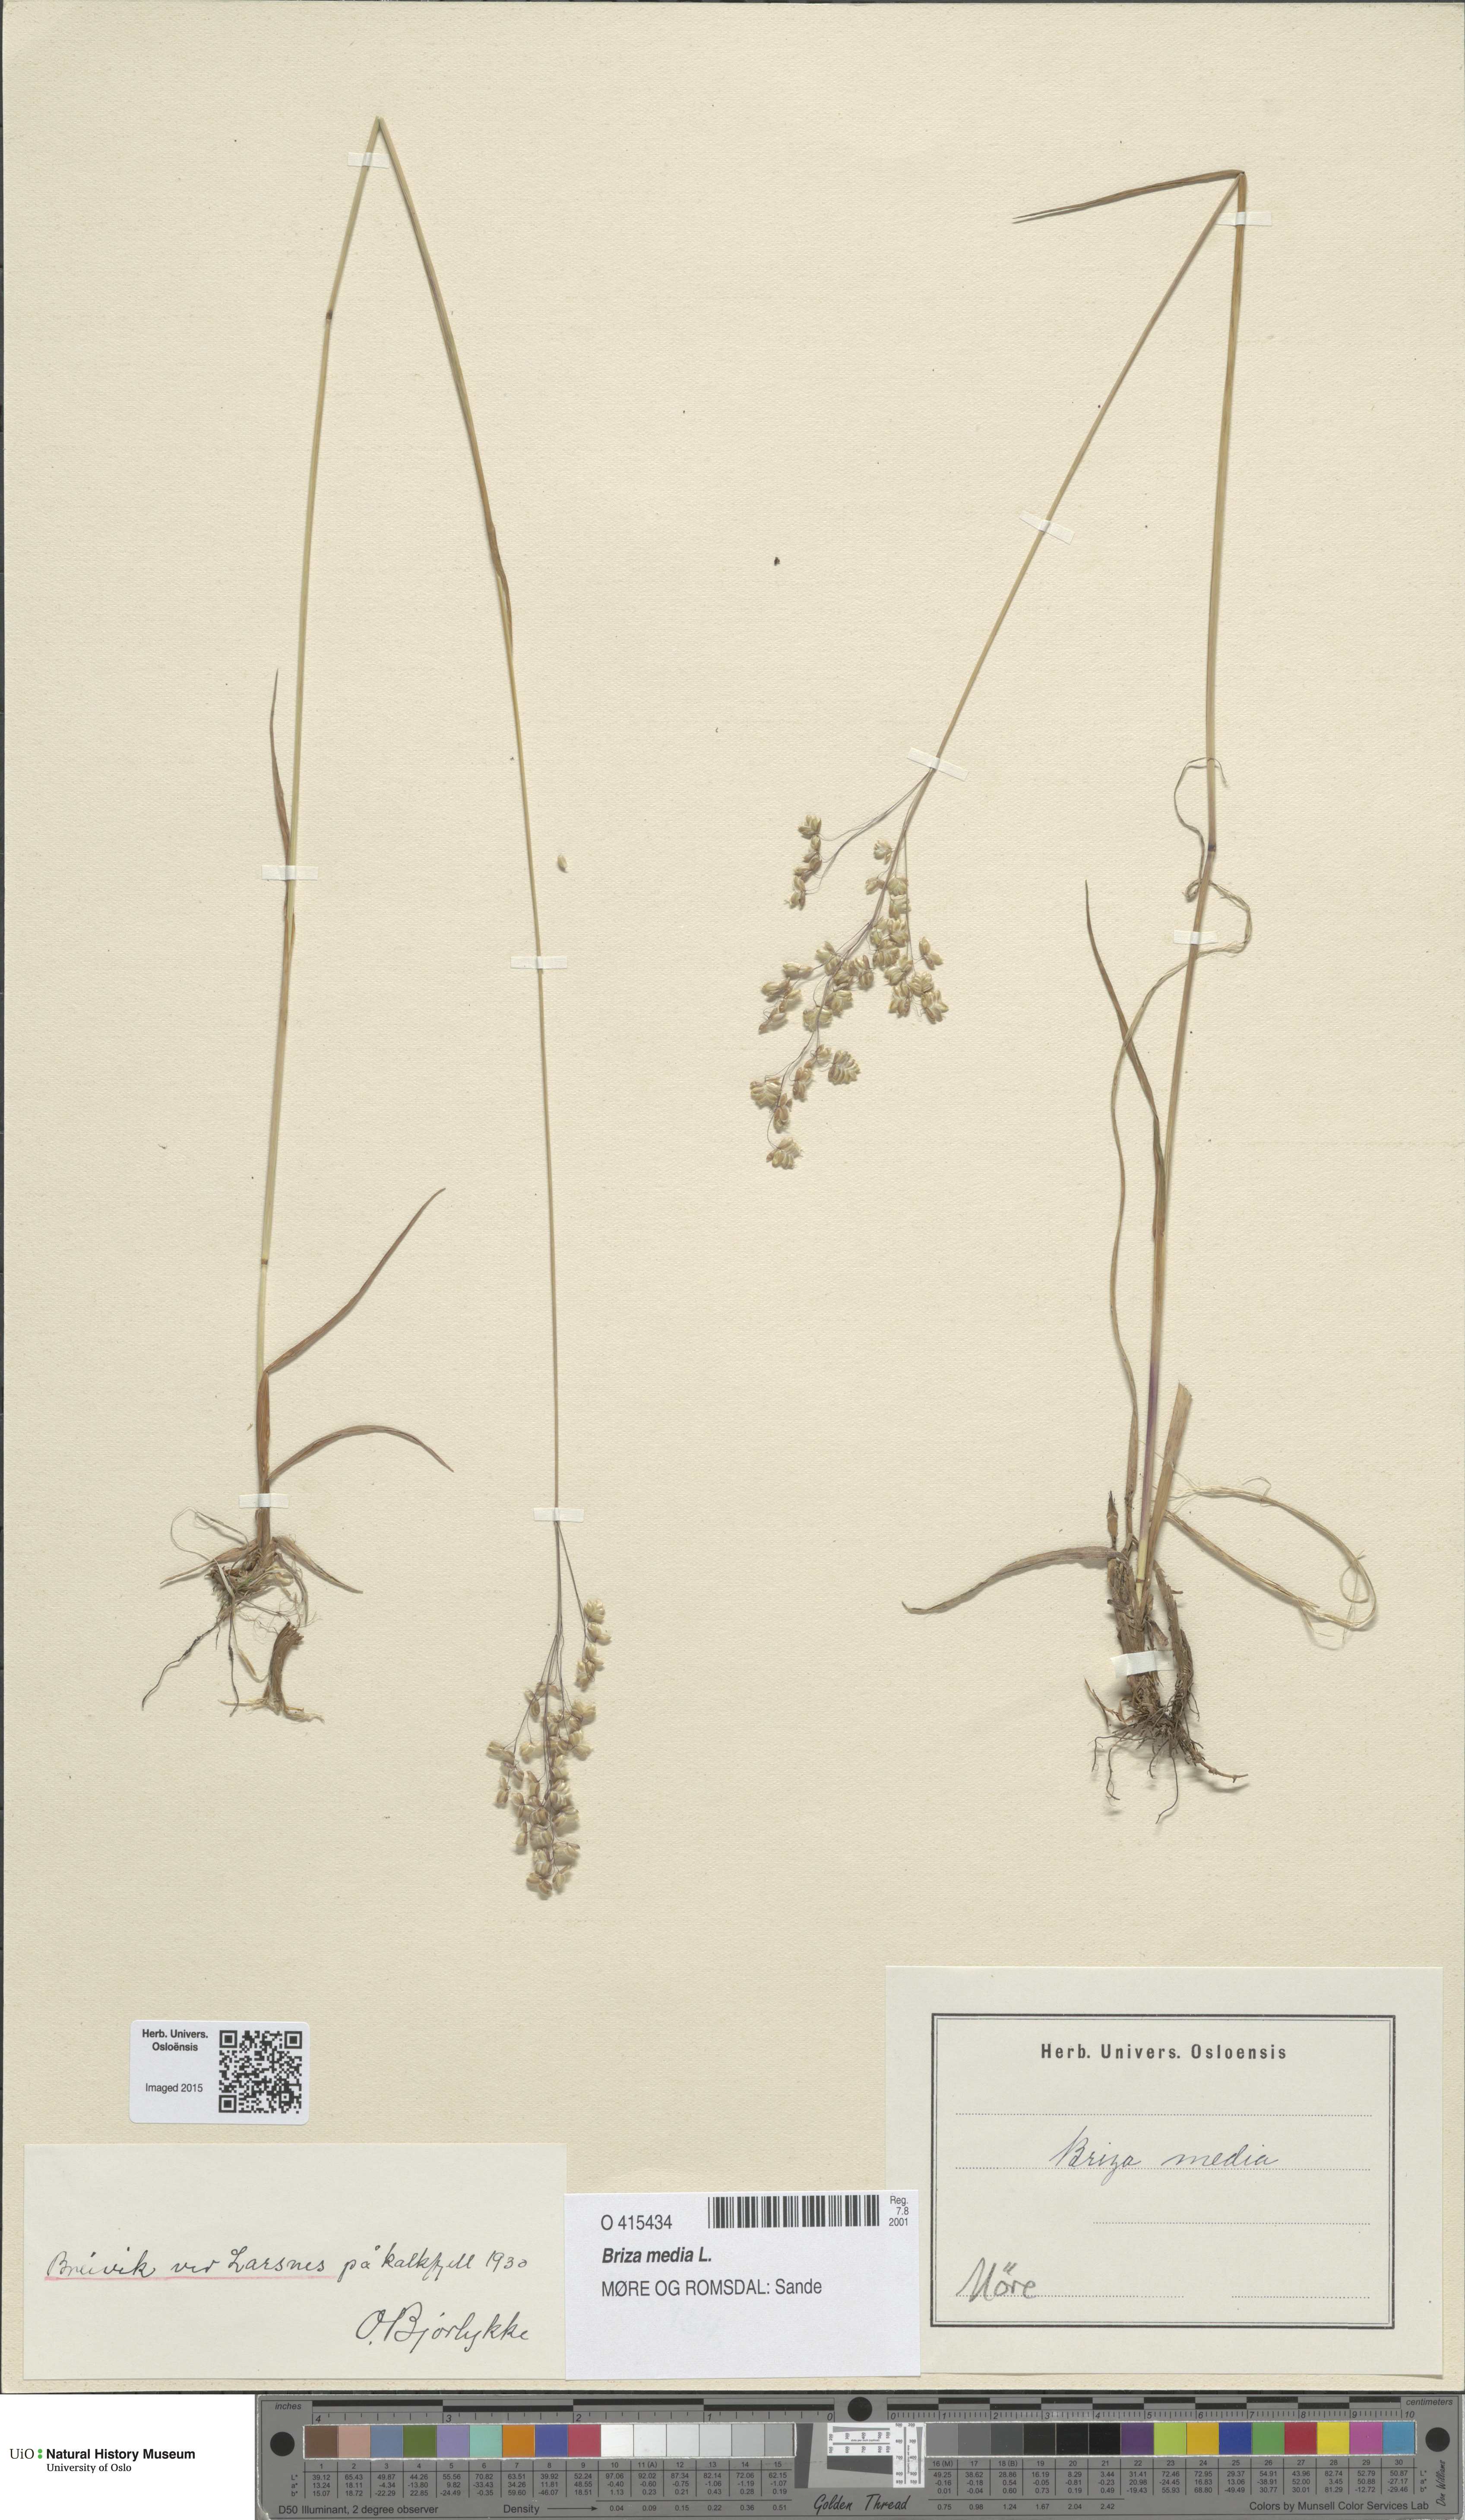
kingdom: Plantae
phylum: Tracheophyta
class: Liliopsida
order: Poales
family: Poaceae
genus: Briza
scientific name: Briza media
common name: Quaking grass
